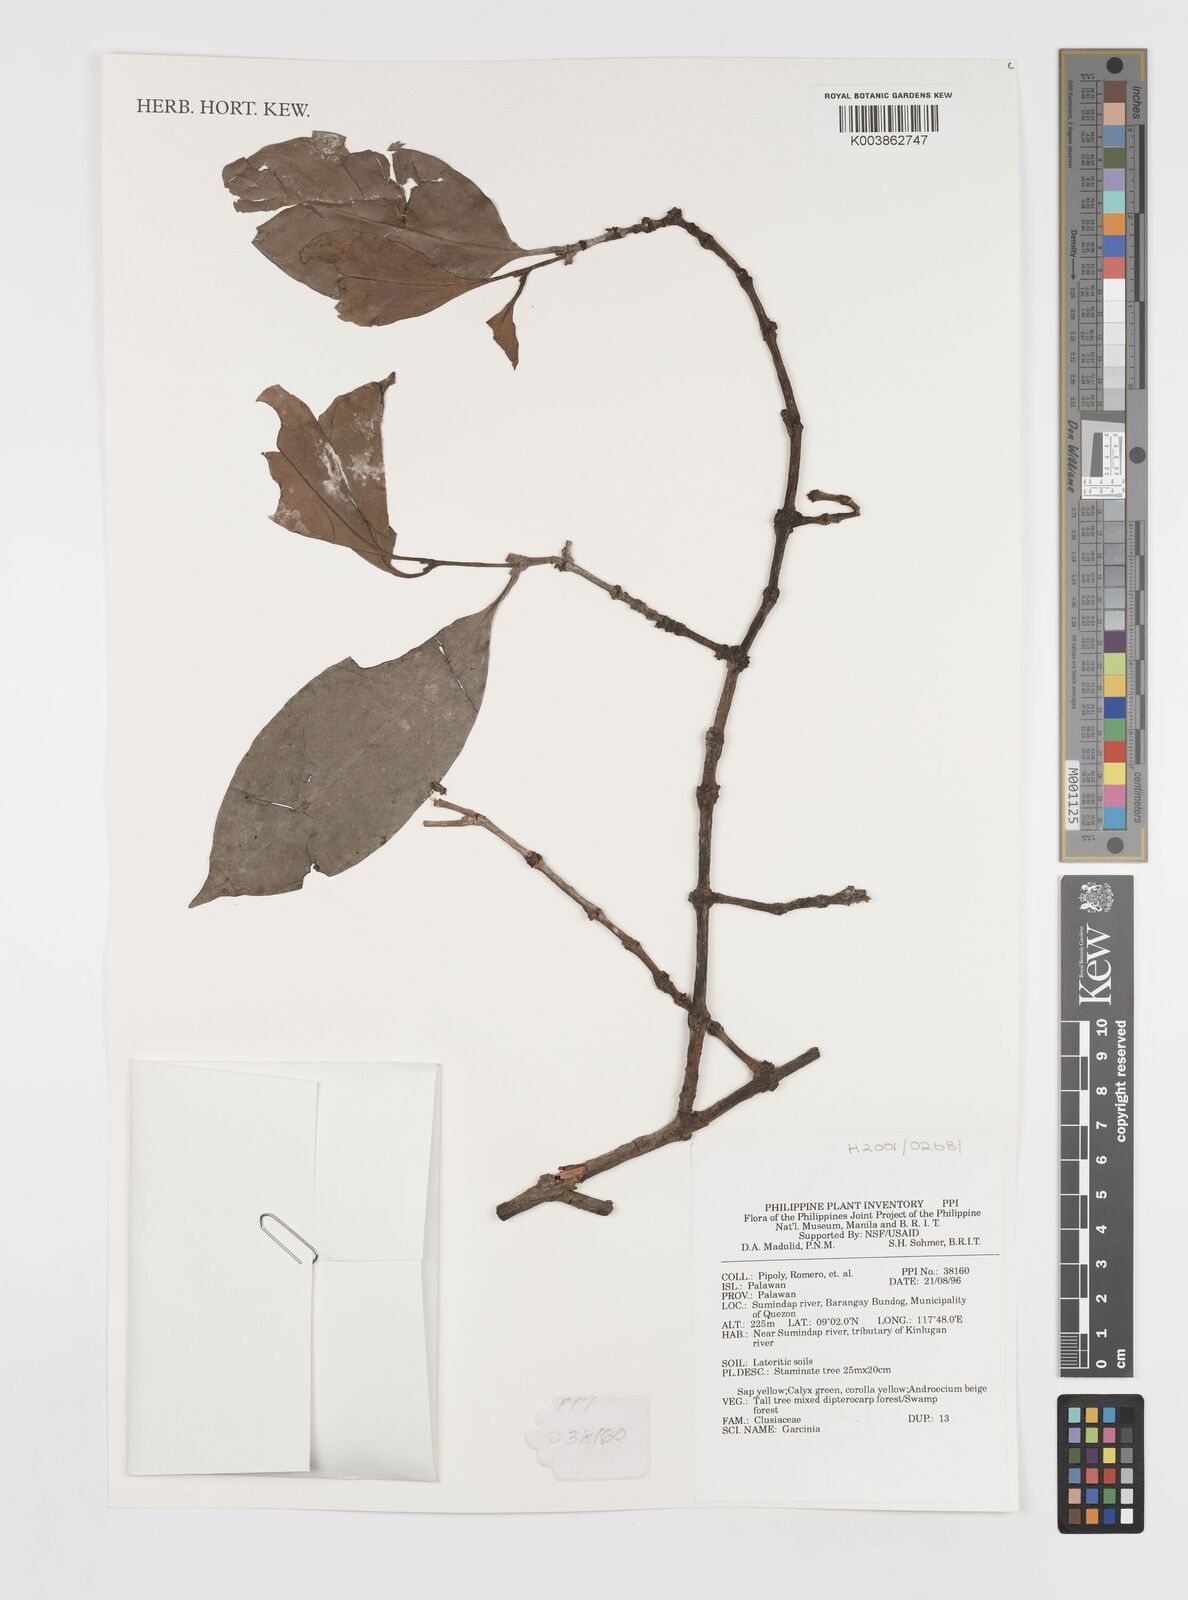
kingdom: Plantae
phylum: Tracheophyta
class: Magnoliopsida
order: Malpighiales
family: Clusiaceae
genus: Garcinia
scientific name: Garcinia
